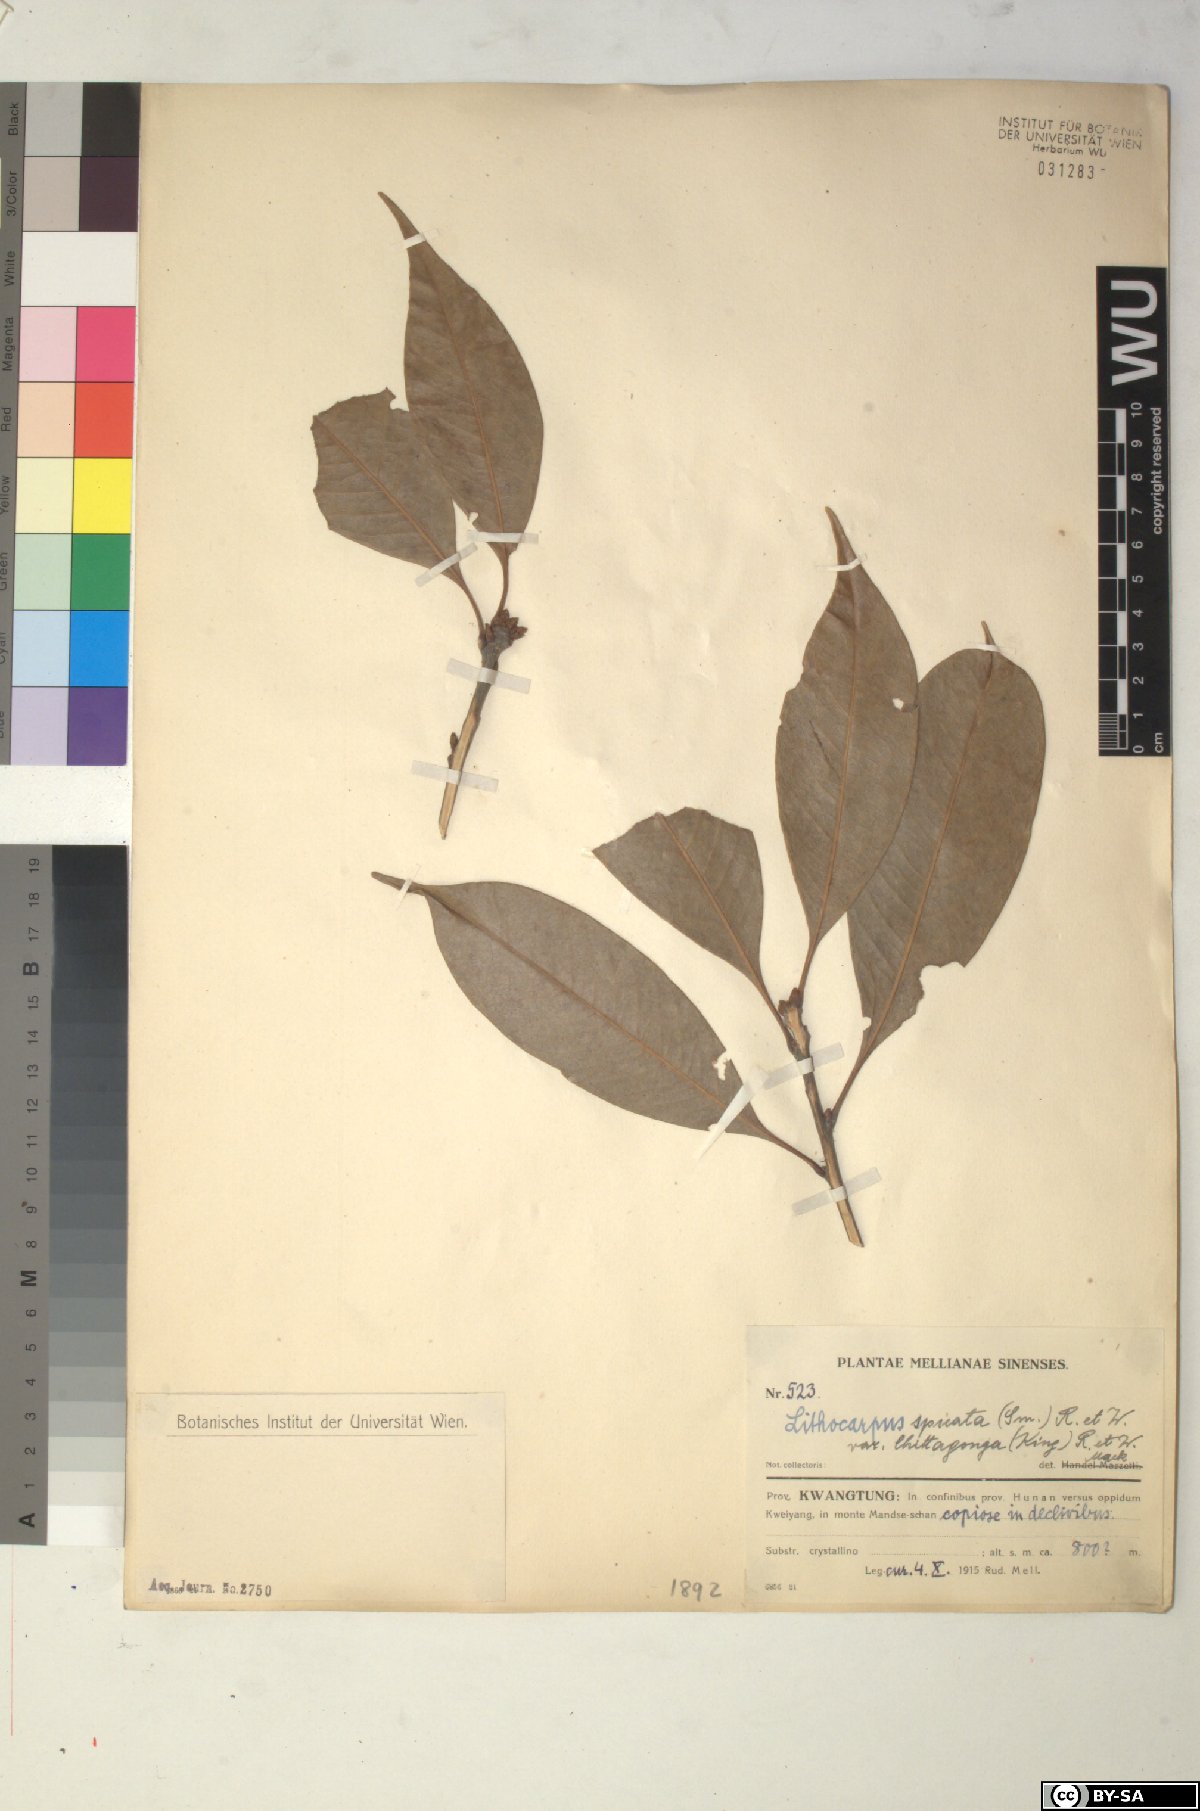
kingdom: Plantae
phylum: Tracheophyta
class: Magnoliopsida
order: Fagales
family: Fagaceae
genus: Lithocarpus
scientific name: Lithocarpus elegans
